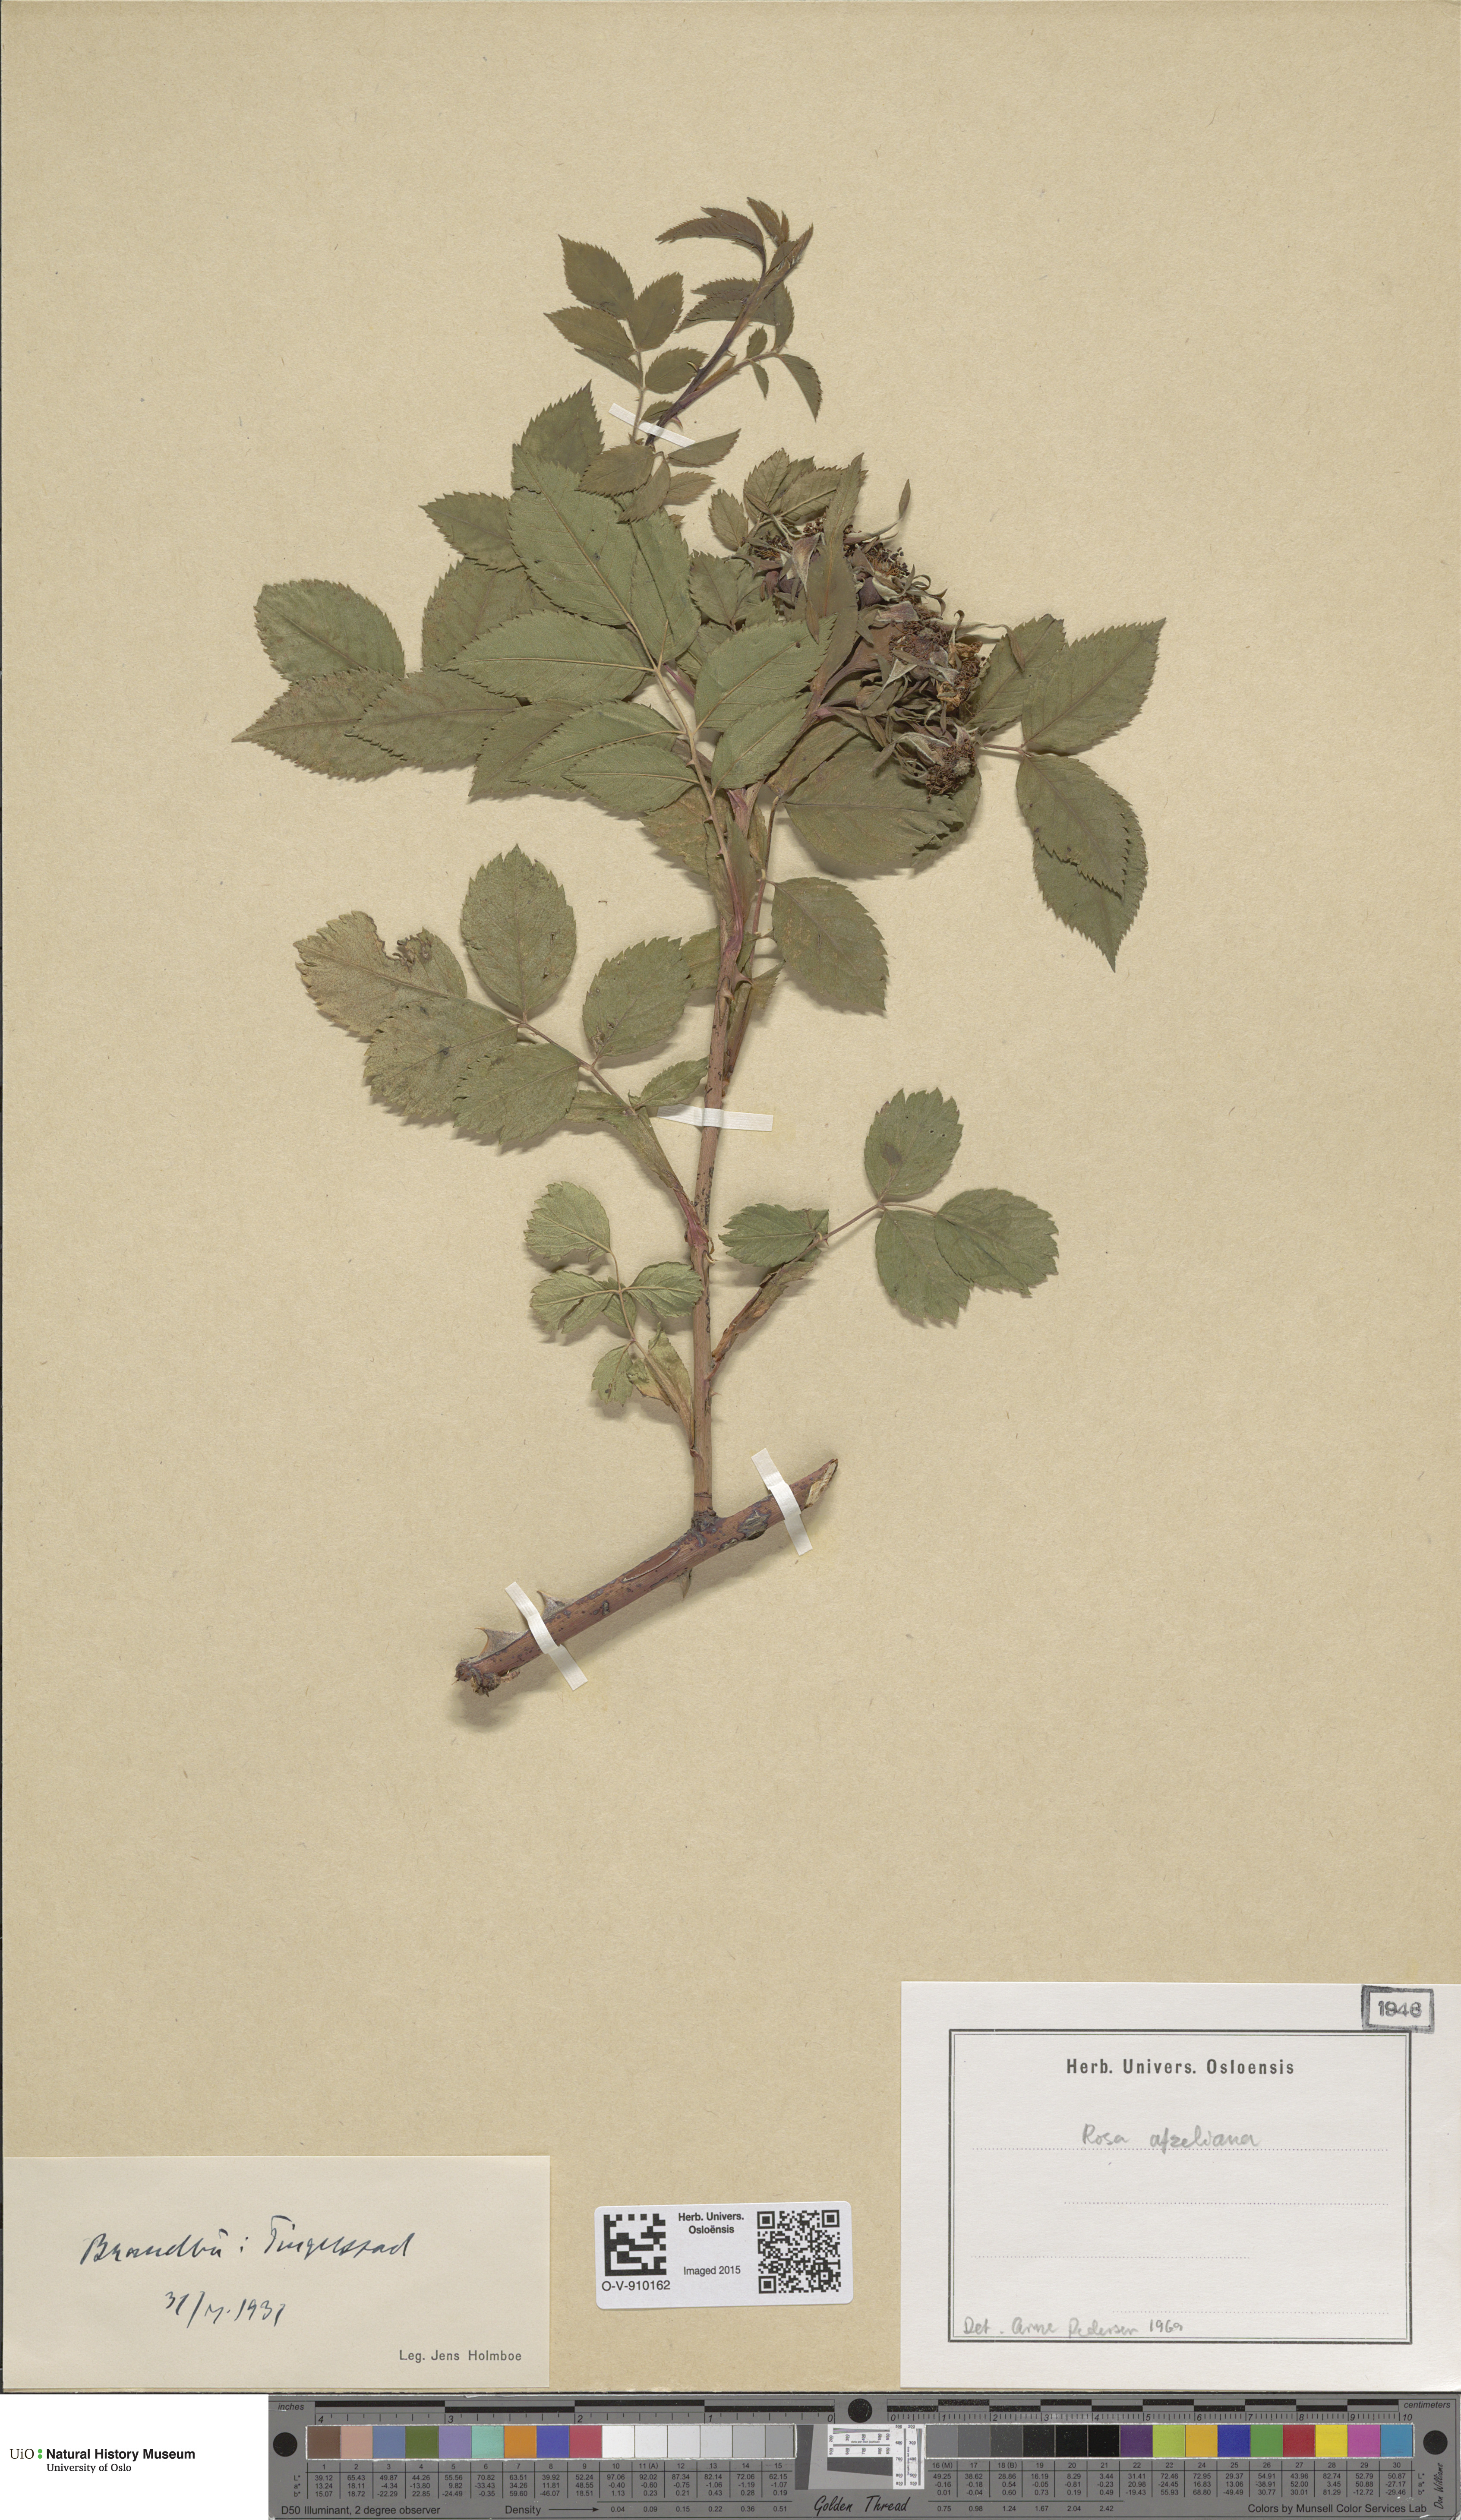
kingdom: Plantae
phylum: Tracheophyta
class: Magnoliopsida
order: Rosales
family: Rosaceae
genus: Rosa
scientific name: Rosa
